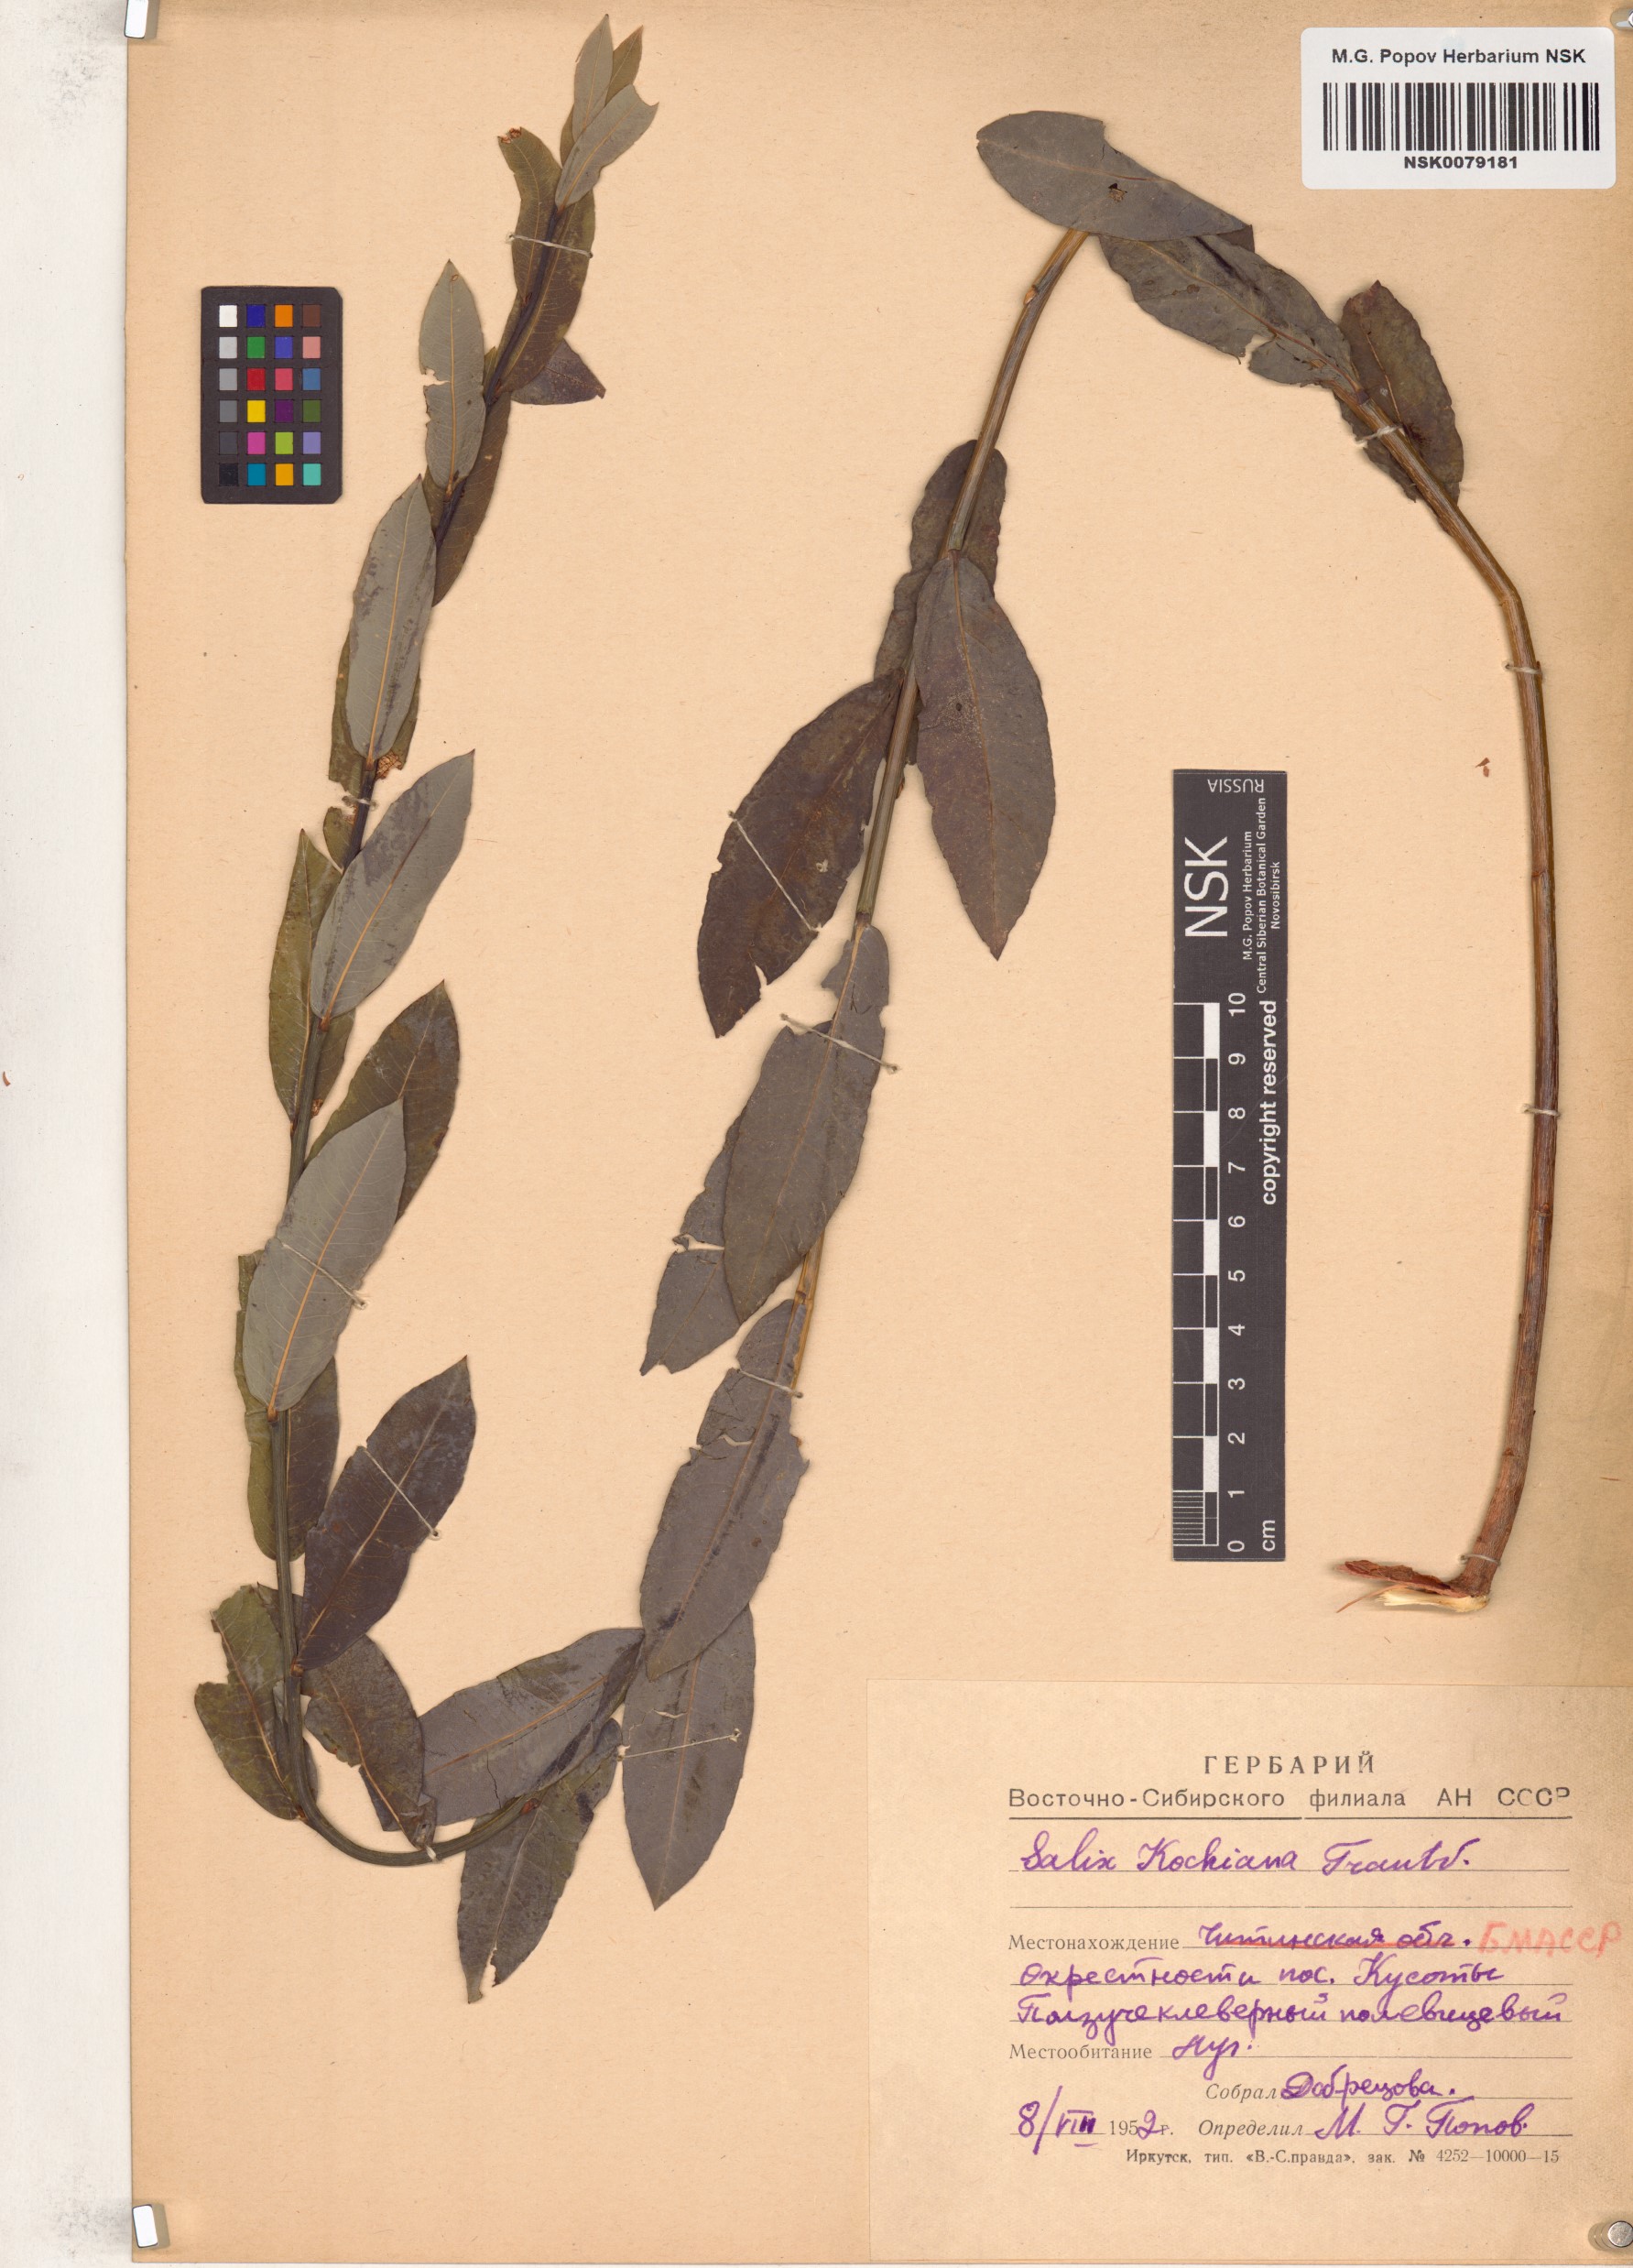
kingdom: Plantae
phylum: Tracheophyta
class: Magnoliopsida
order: Malpighiales
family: Salicaceae
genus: Salix
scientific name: Salix kochiana
